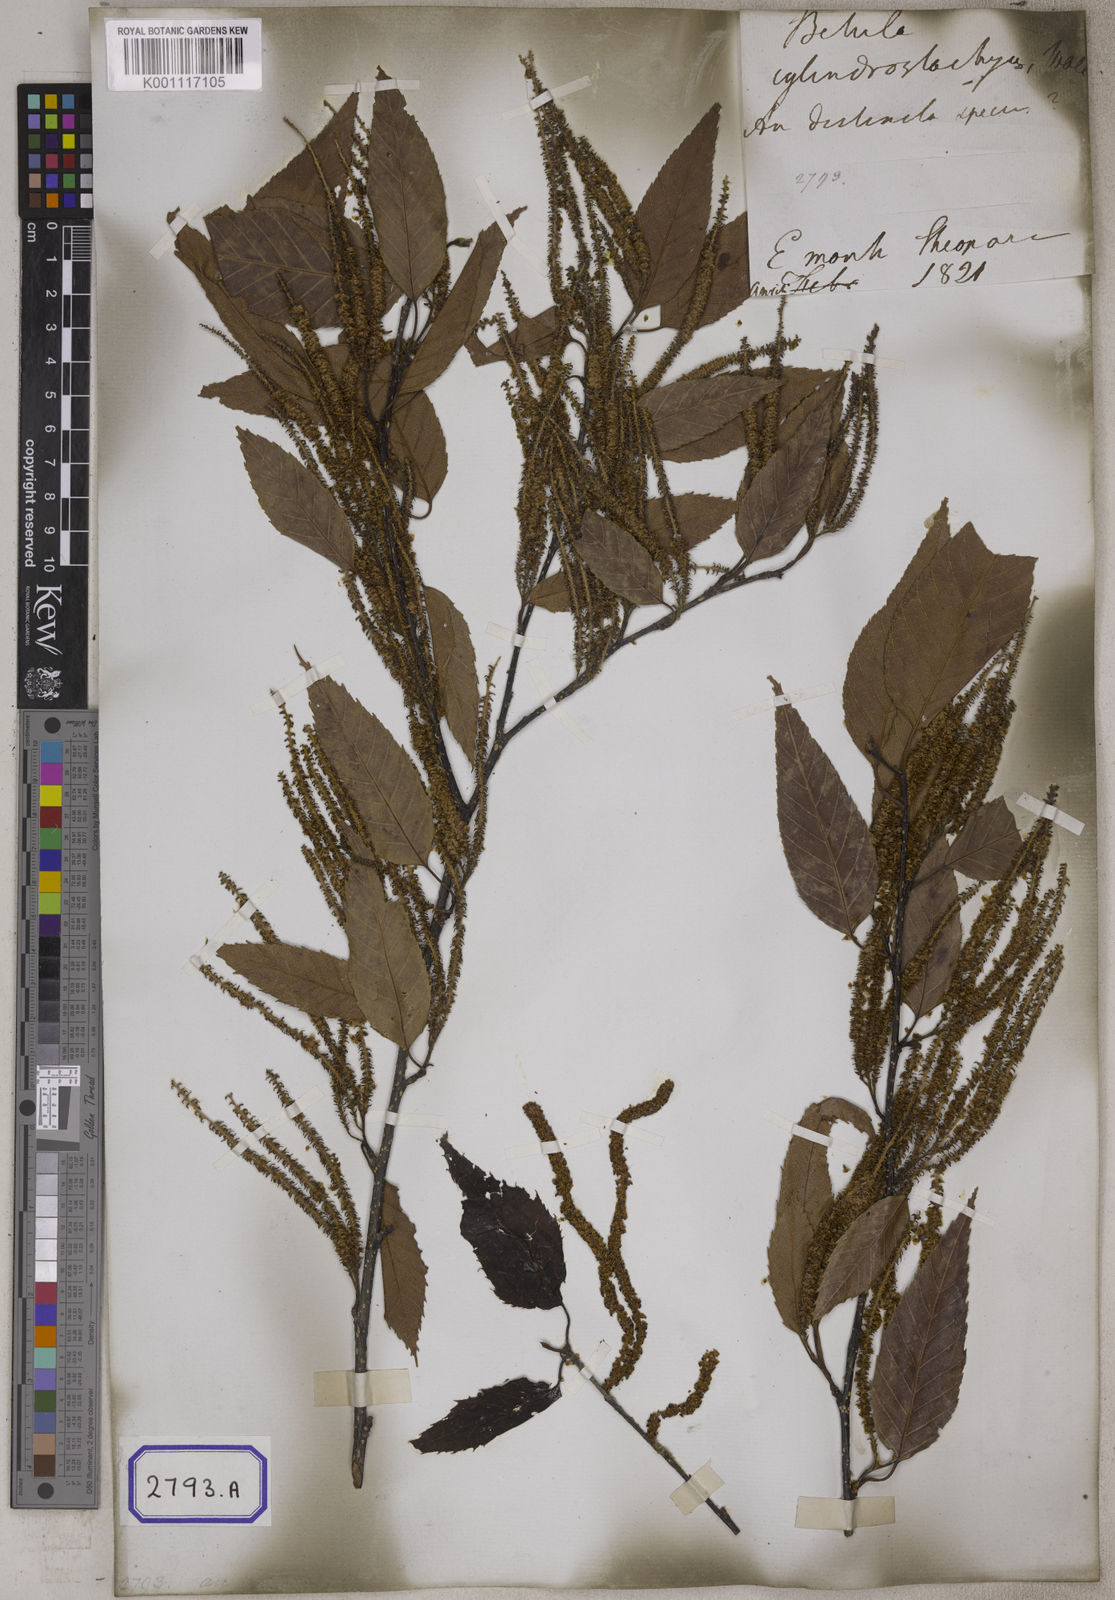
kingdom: Plantae
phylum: Tracheophyta
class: Magnoliopsida
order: Fagales
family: Betulaceae
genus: Betula
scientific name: Betula alnoides
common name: Indian birch
